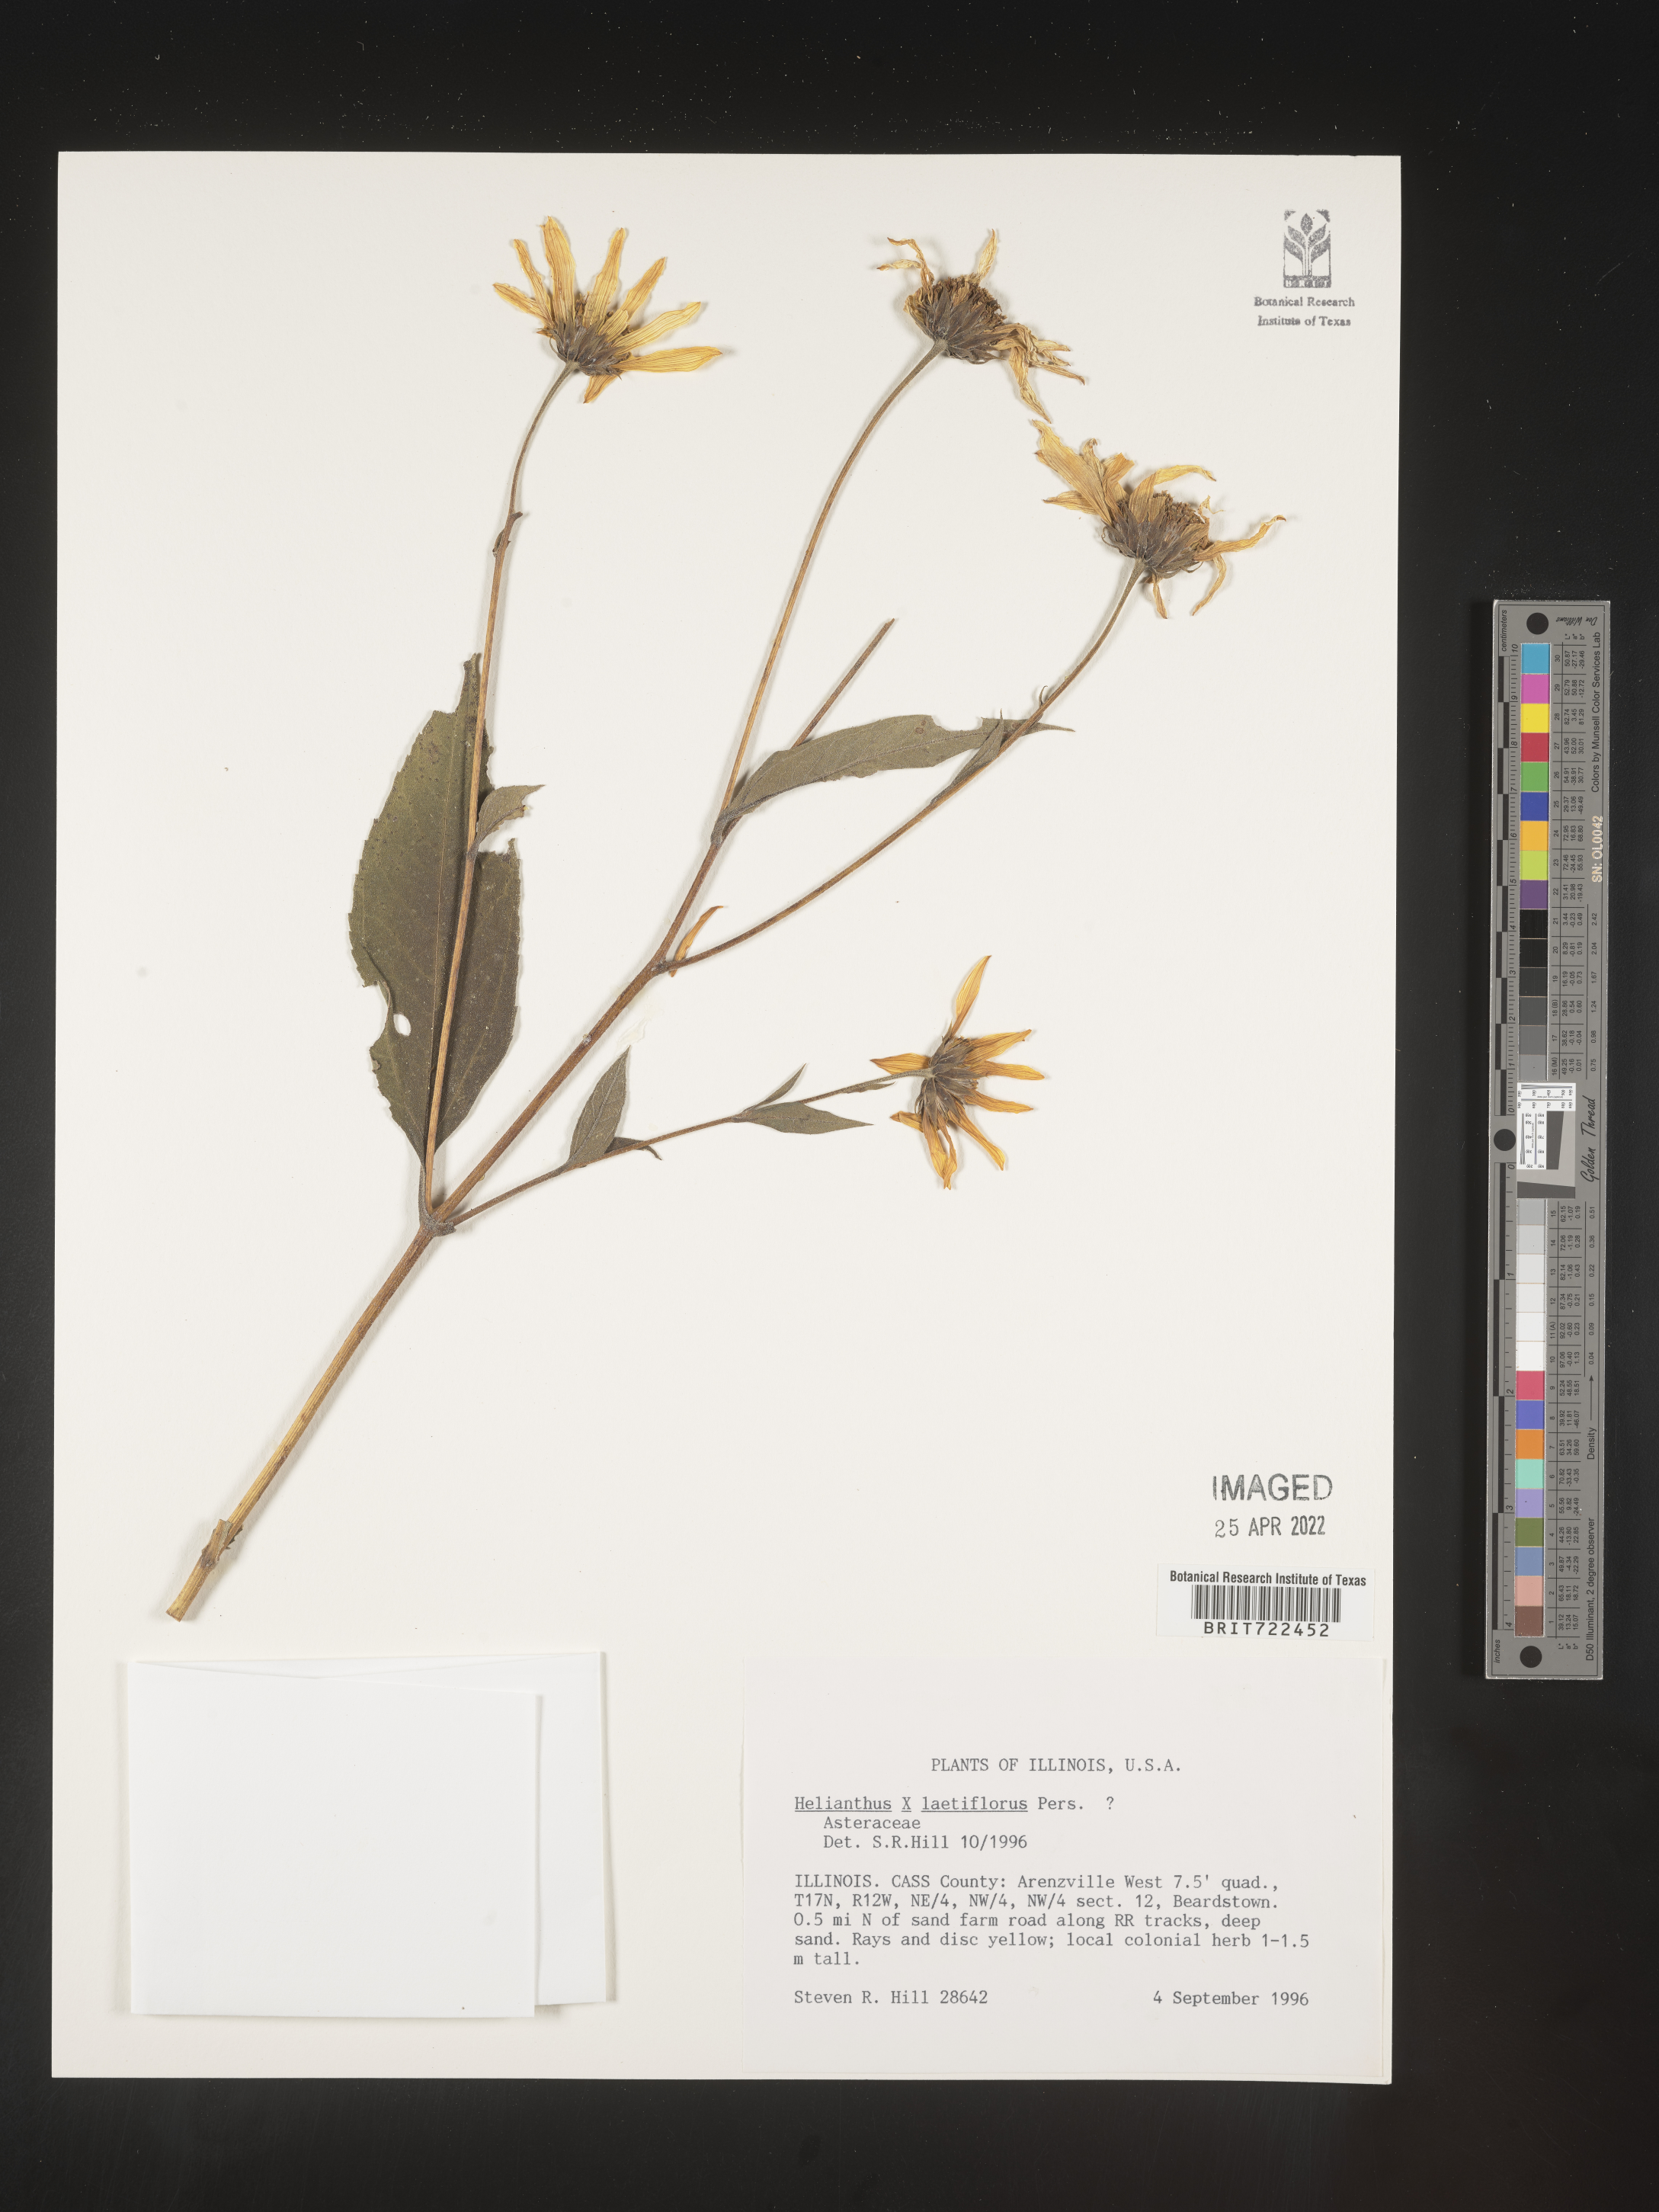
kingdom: Plantae
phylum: Tracheophyta
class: Magnoliopsida
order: Asterales
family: Asteraceae
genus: Helianthus
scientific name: Helianthus laetiflorus
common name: Perennial sunflower
